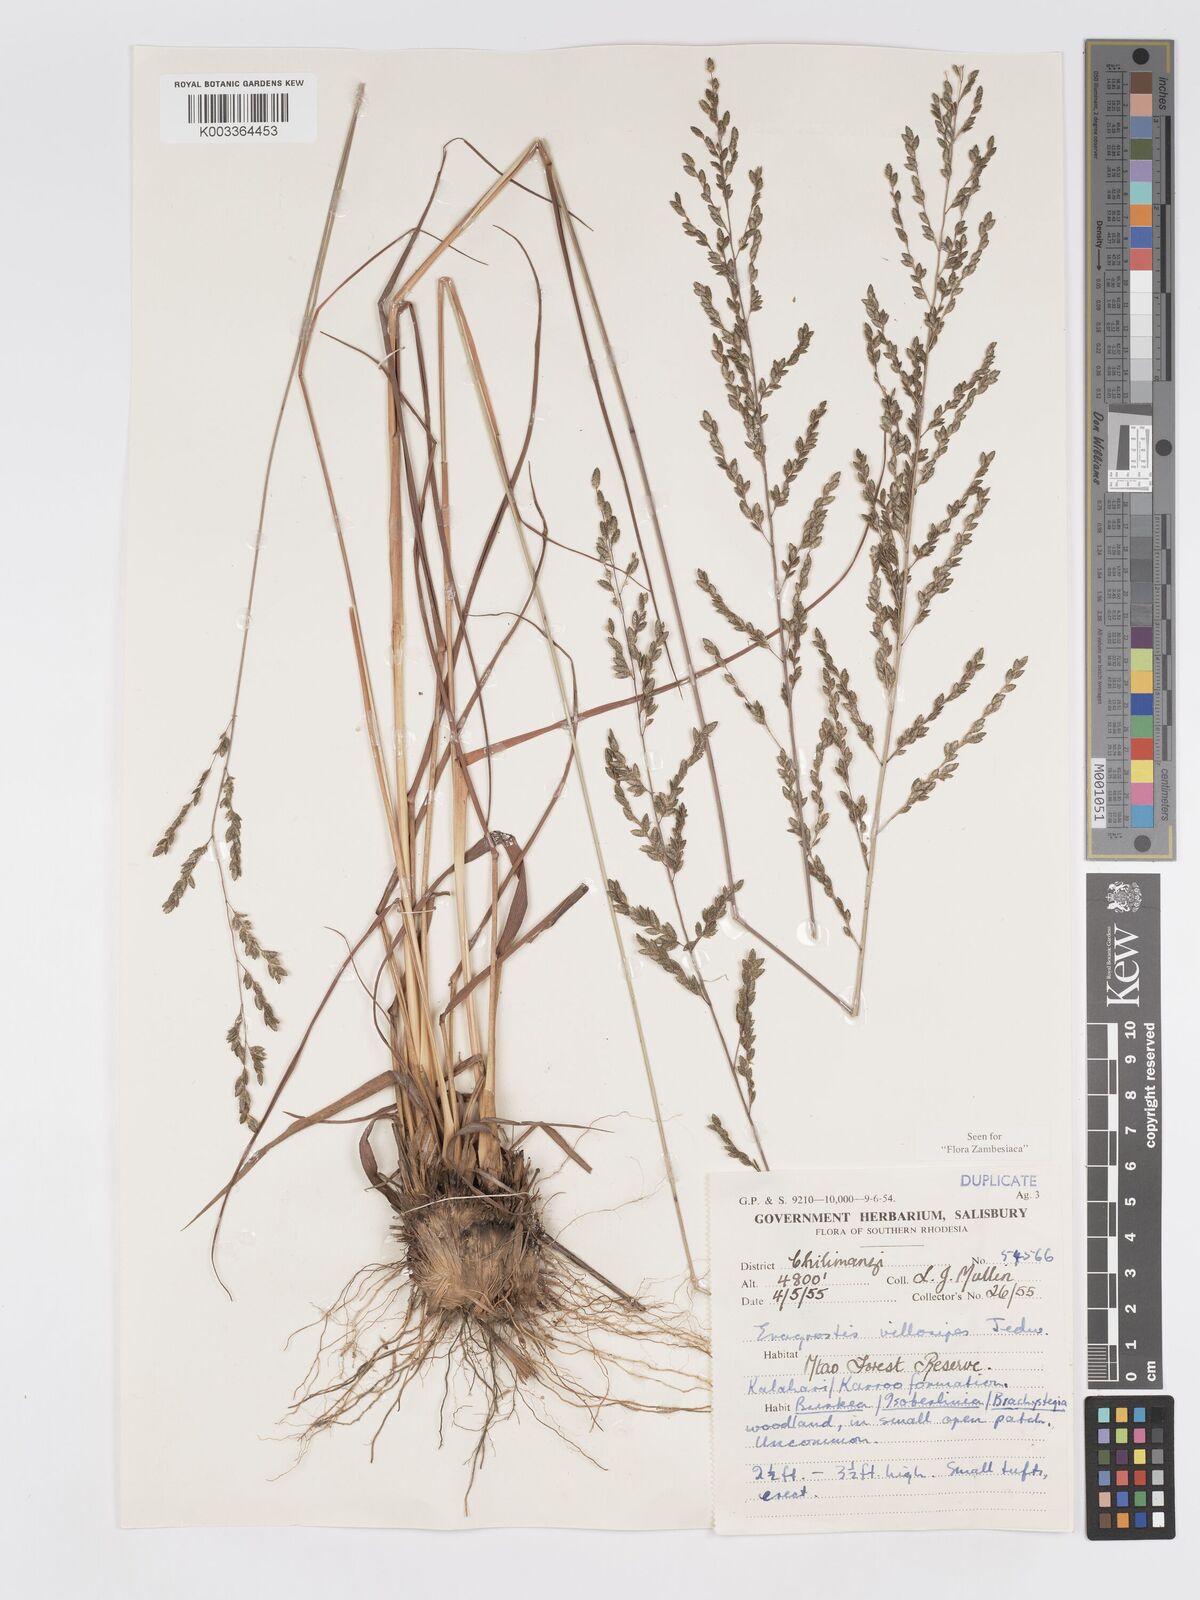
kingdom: Plantae
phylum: Tracheophyta
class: Liliopsida
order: Poales
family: Poaceae
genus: Eragrostis
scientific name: Eragrostis sclerantha
